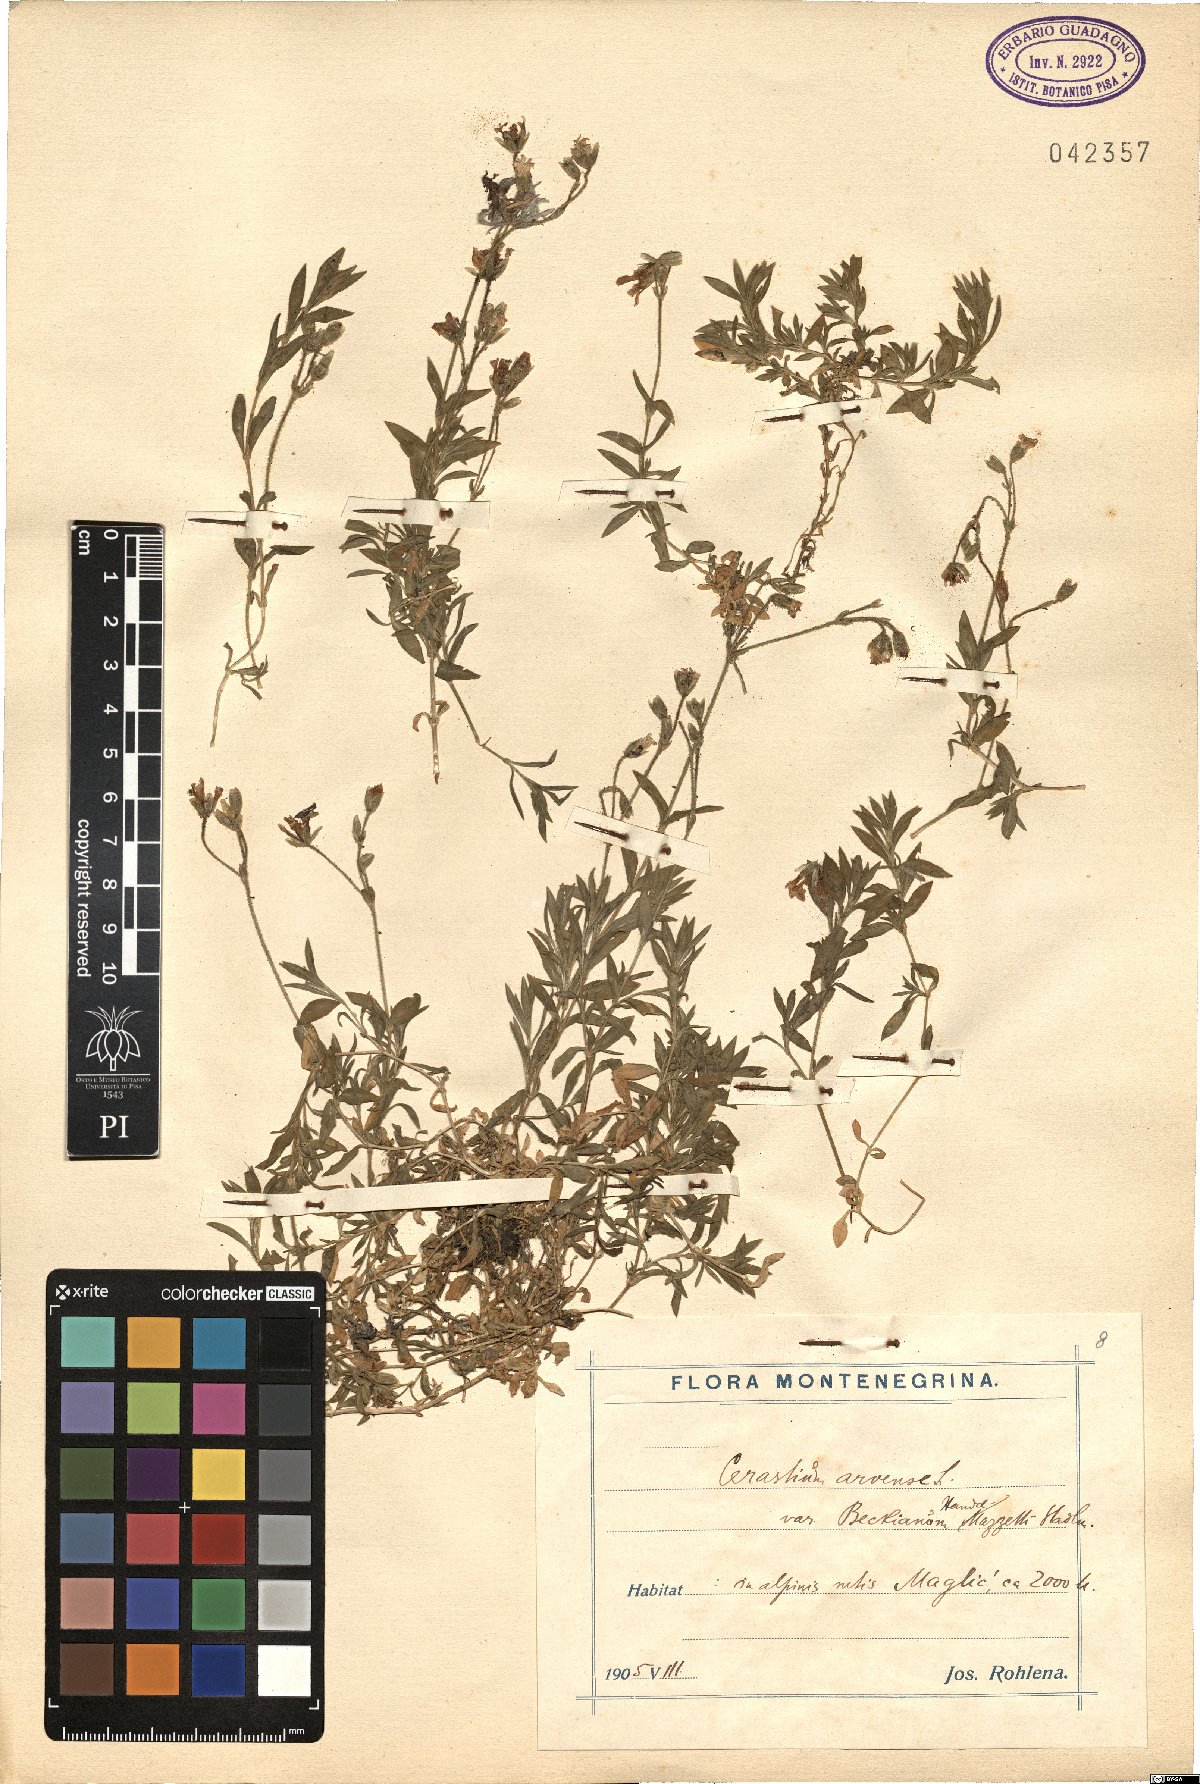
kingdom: Plantae
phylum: Tracheophyta
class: Magnoliopsida
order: Caryophyllales
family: Caryophyllaceae
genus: Cerastium
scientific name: Cerastium arvense
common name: Field mouse-ear
